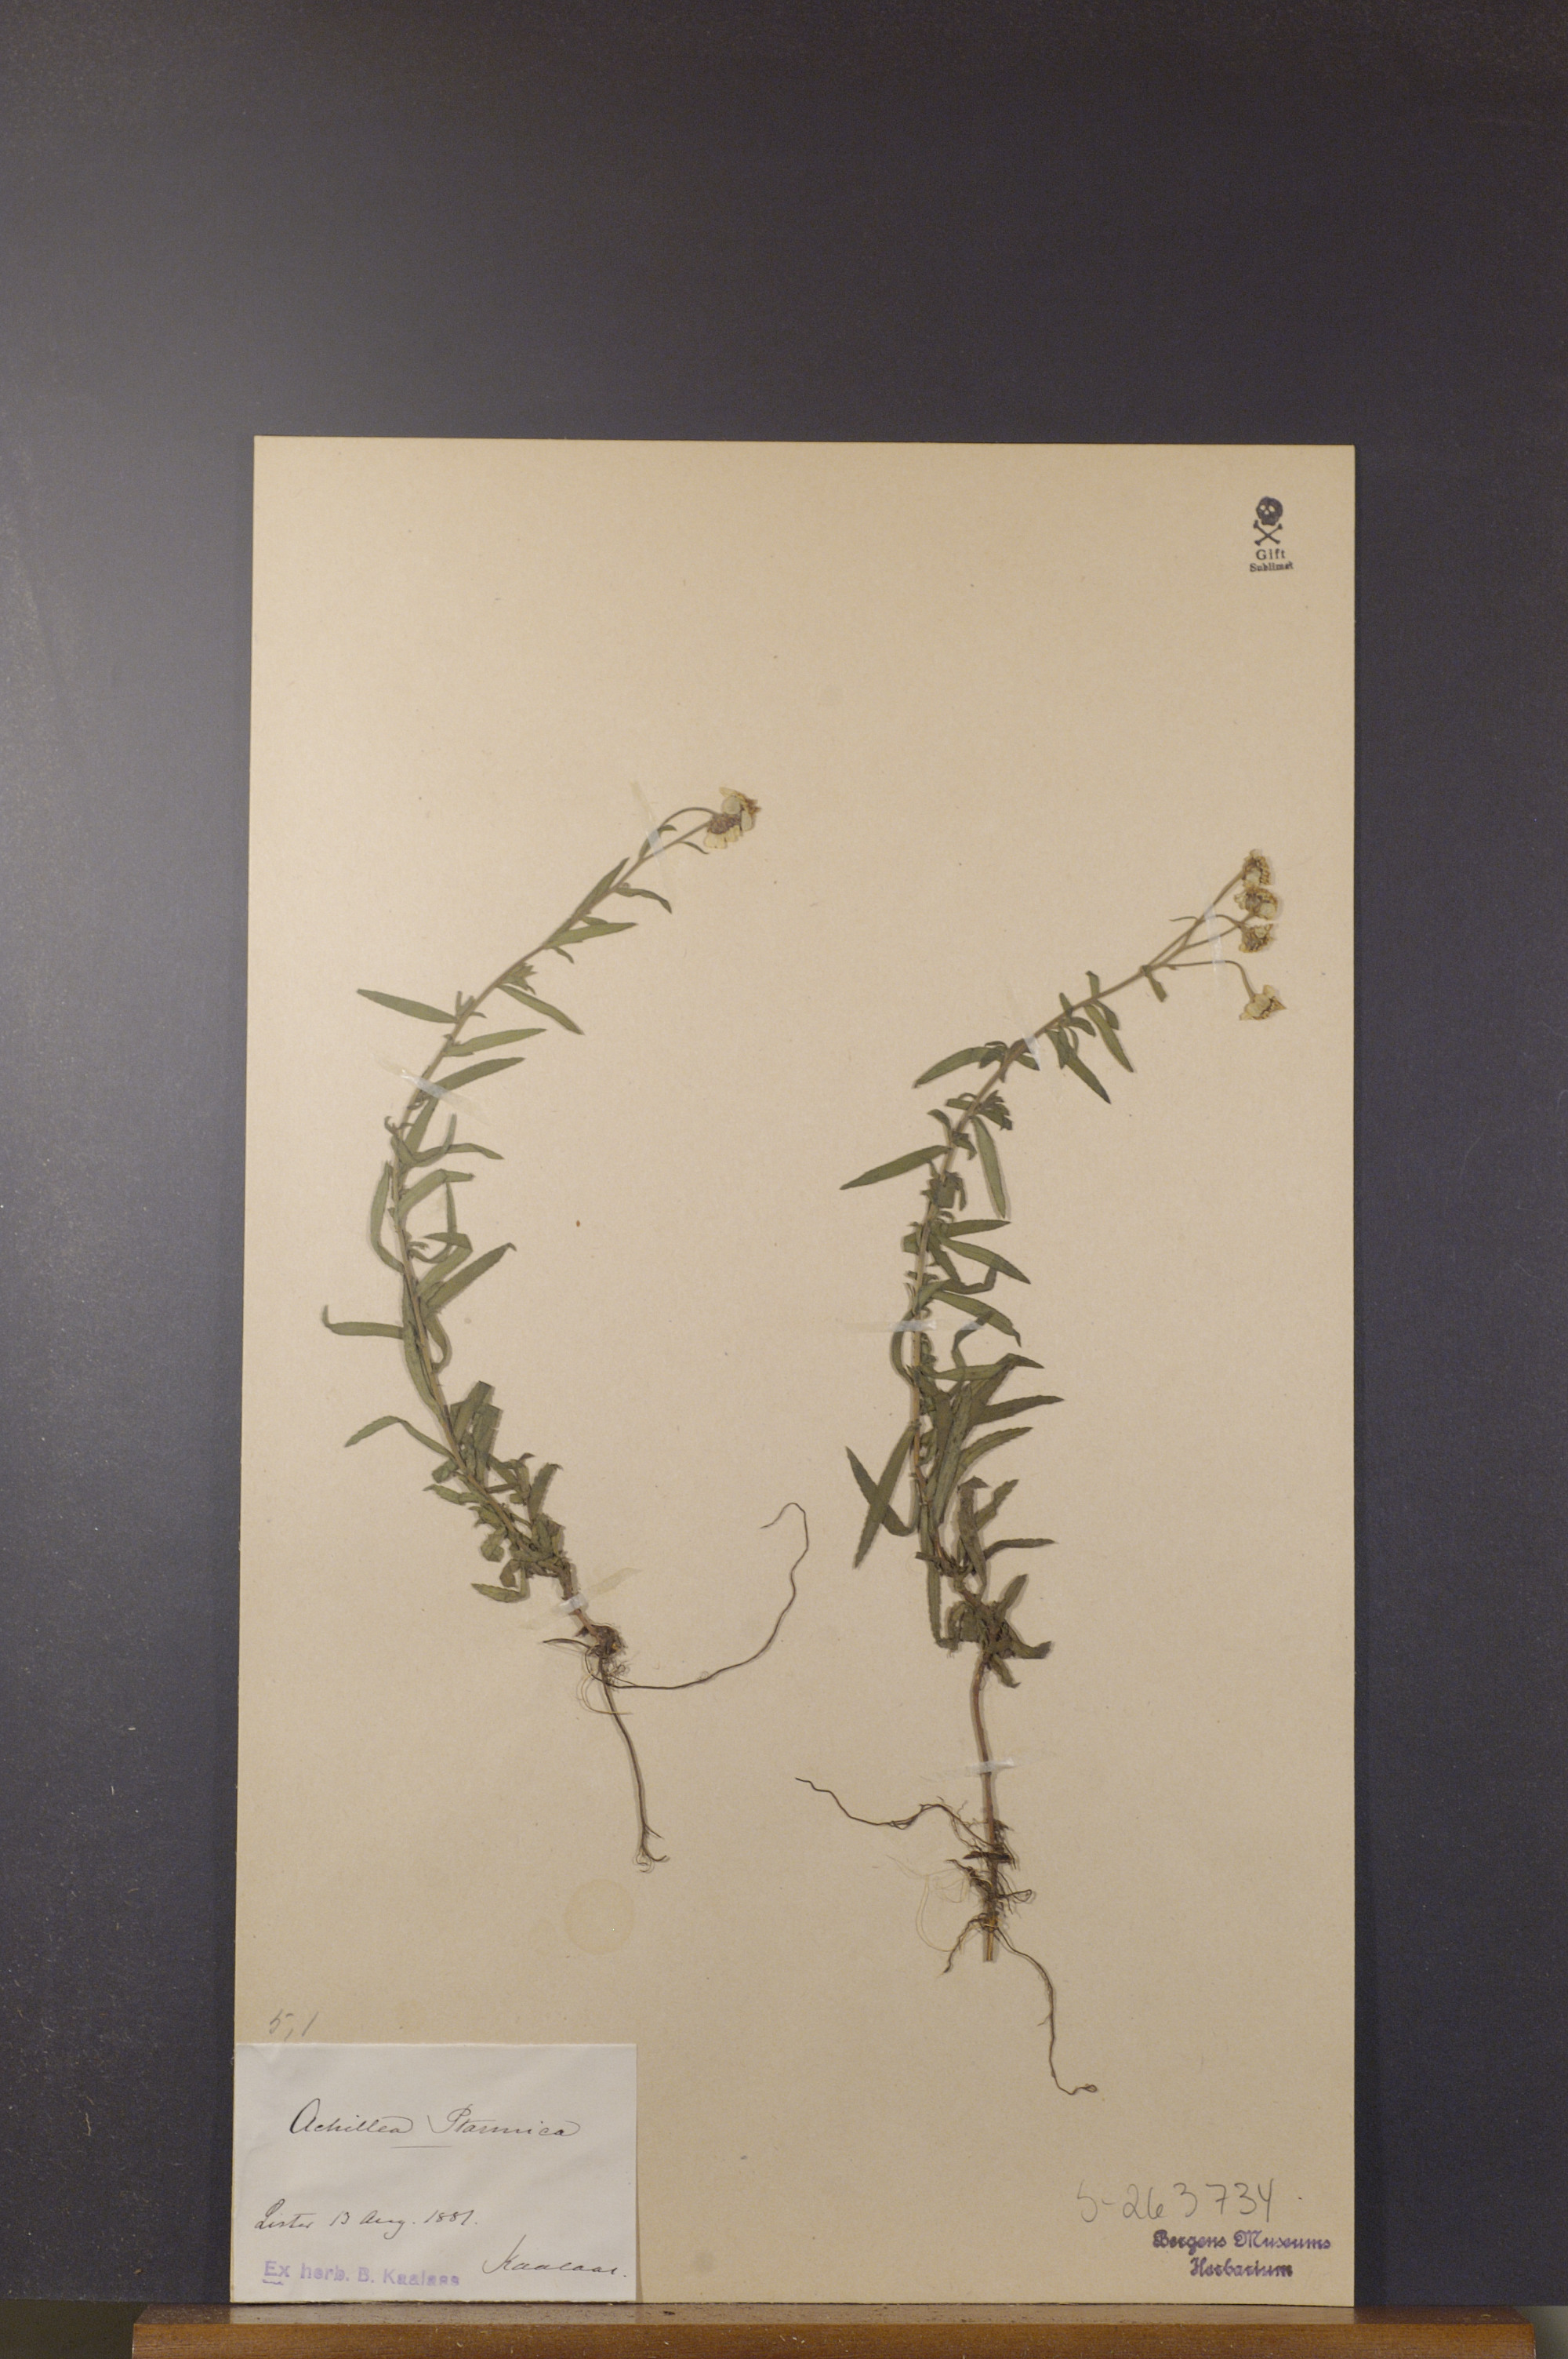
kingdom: Plantae
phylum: Tracheophyta
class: Magnoliopsida
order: Asterales
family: Asteraceae
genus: Achillea
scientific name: Achillea ptarmica
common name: Sneezeweed
